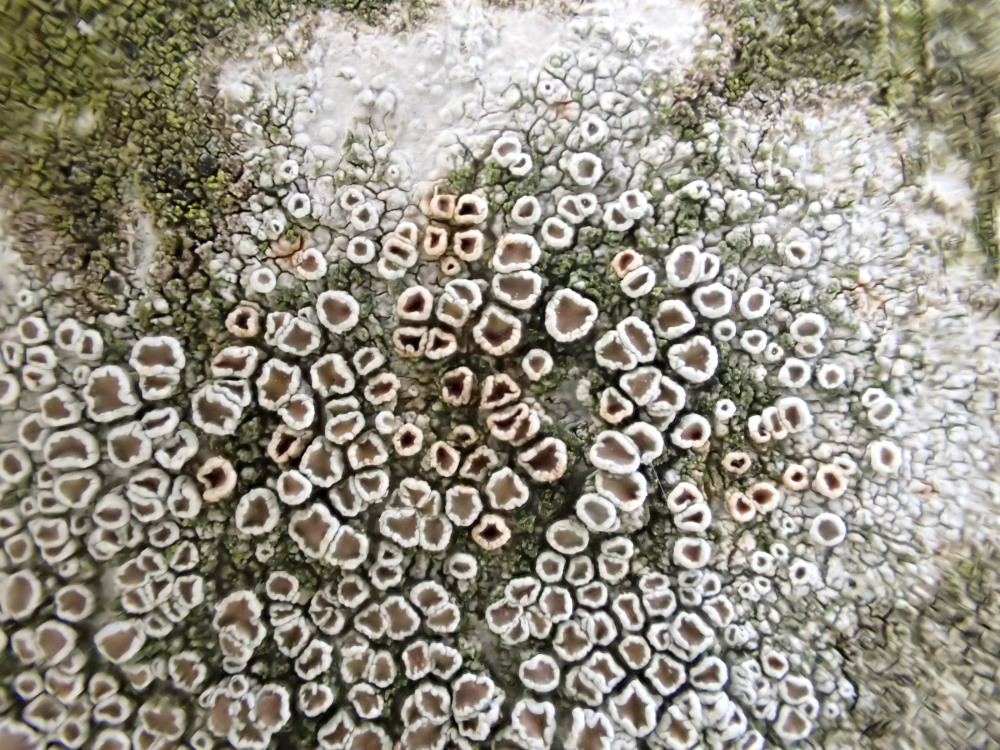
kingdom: Fungi
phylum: Ascomycota
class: Lecanoromycetes
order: Lecanorales
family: Lecanoraceae
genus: Lecanora
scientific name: Lecanora chlarotera
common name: brun kantskivelav
